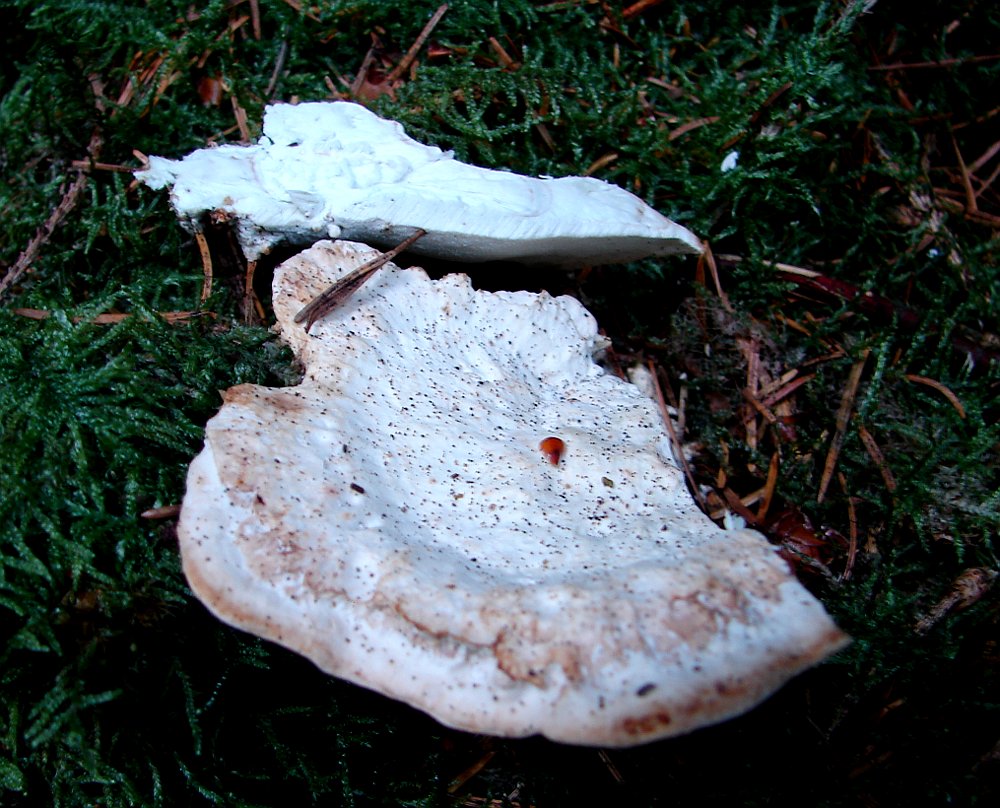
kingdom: Fungi
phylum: Basidiomycota
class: Agaricomycetes
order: Polyporales
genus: Calcipostia
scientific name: Calcipostia guttulata
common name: dråbe-kødporesvamp
